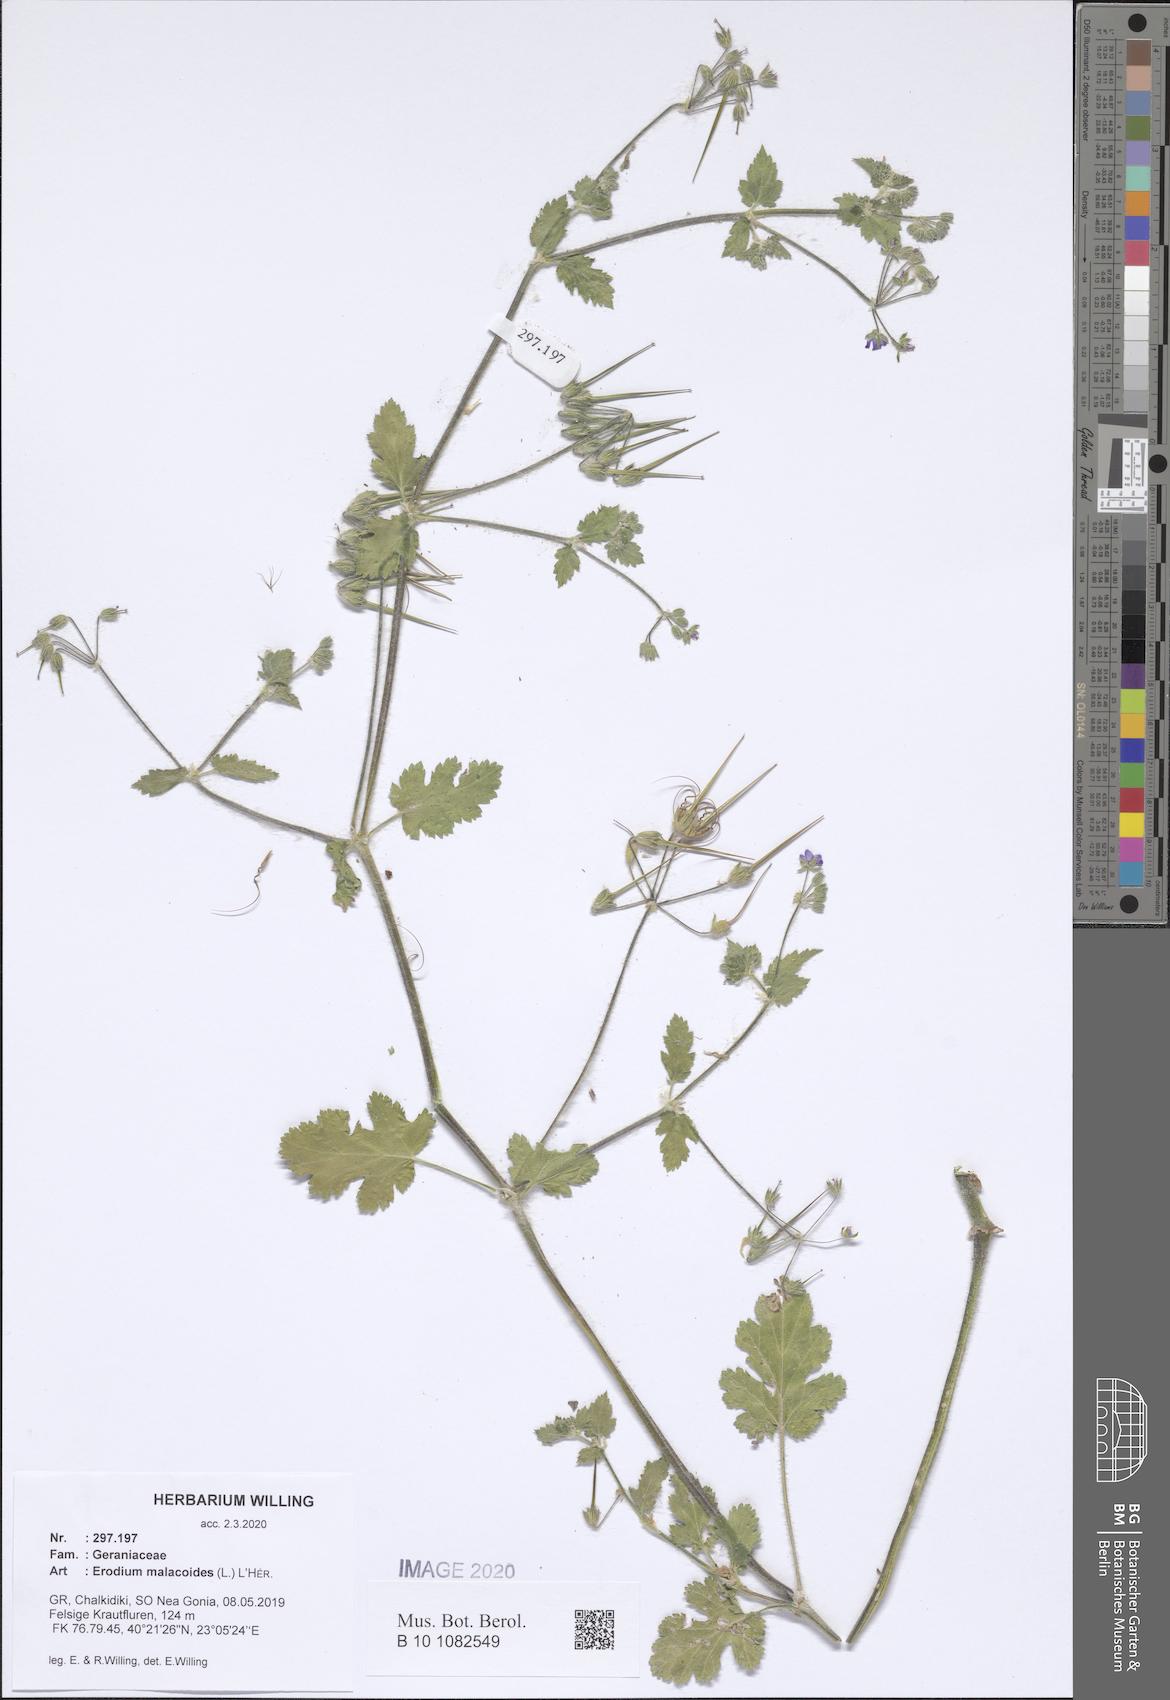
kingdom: Plantae
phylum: Tracheophyta
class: Magnoliopsida
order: Geraniales
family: Geraniaceae
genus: Erodium
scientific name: Erodium malacoides
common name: Soft stork's-bill
